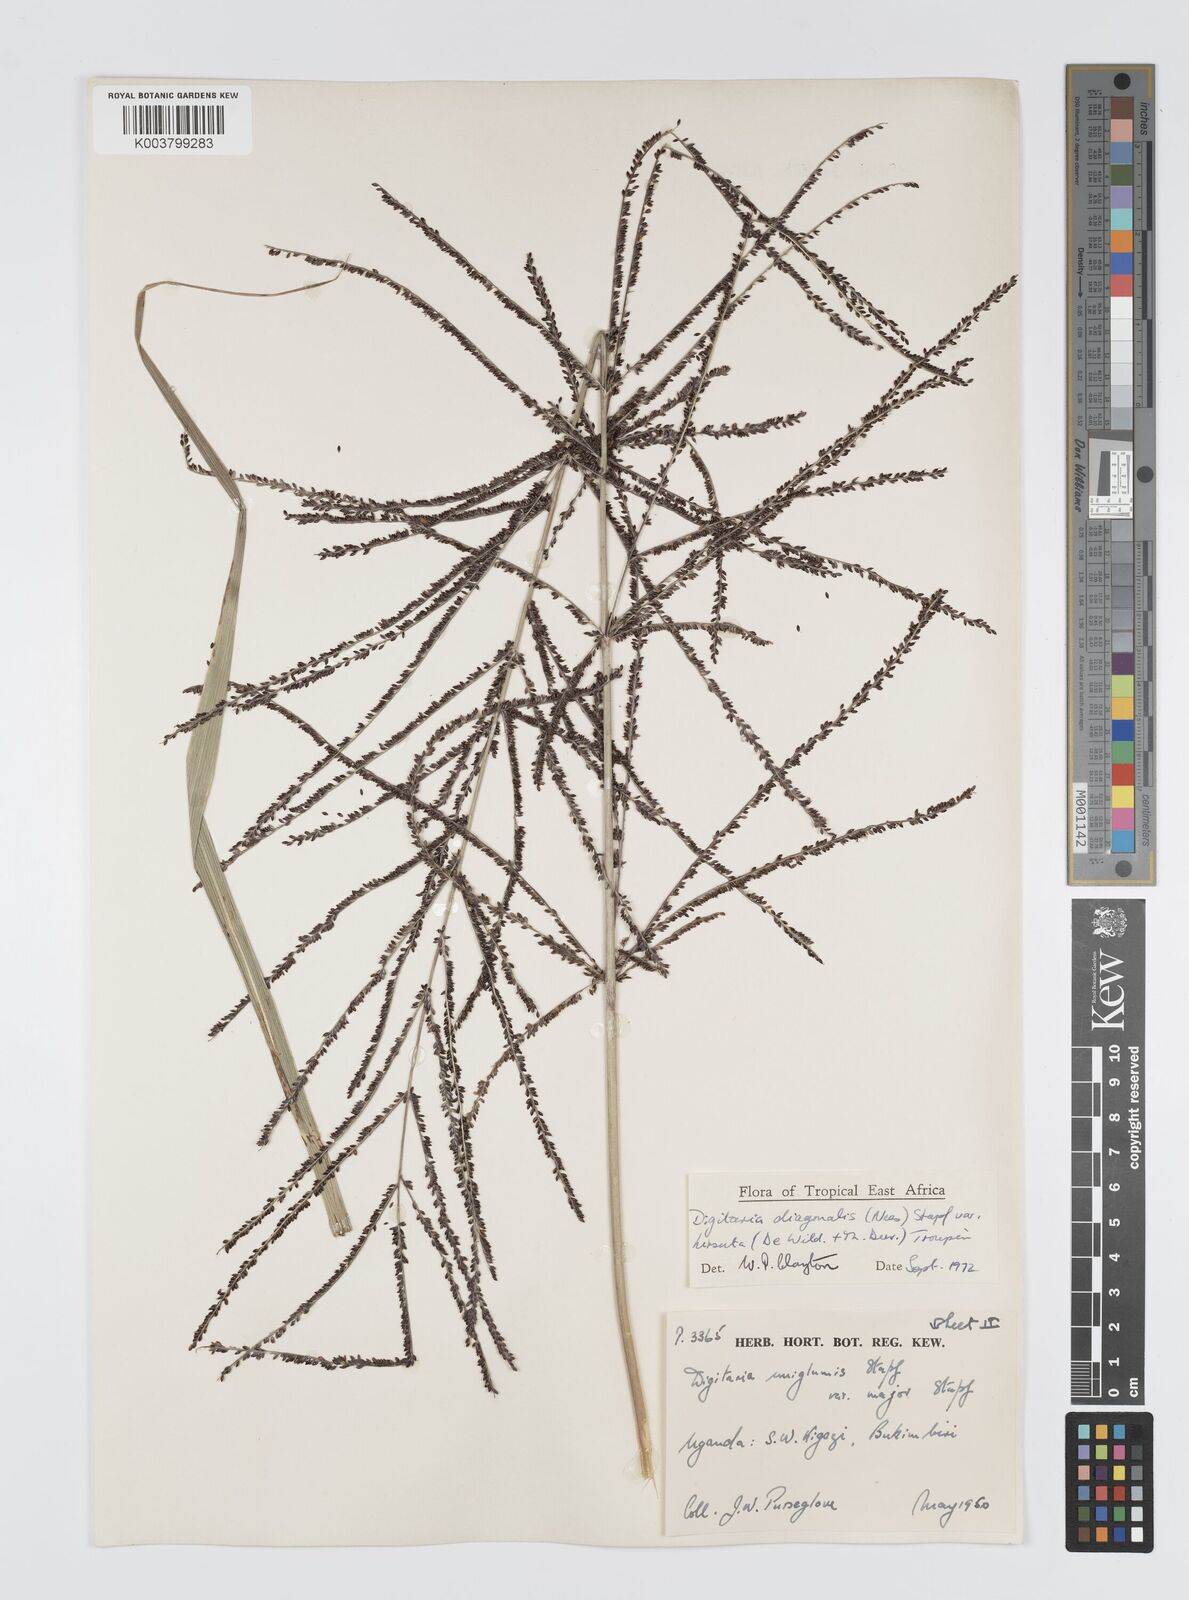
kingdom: Plantae
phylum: Tracheophyta
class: Liliopsida
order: Poales
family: Poaceae
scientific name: Poaceae
